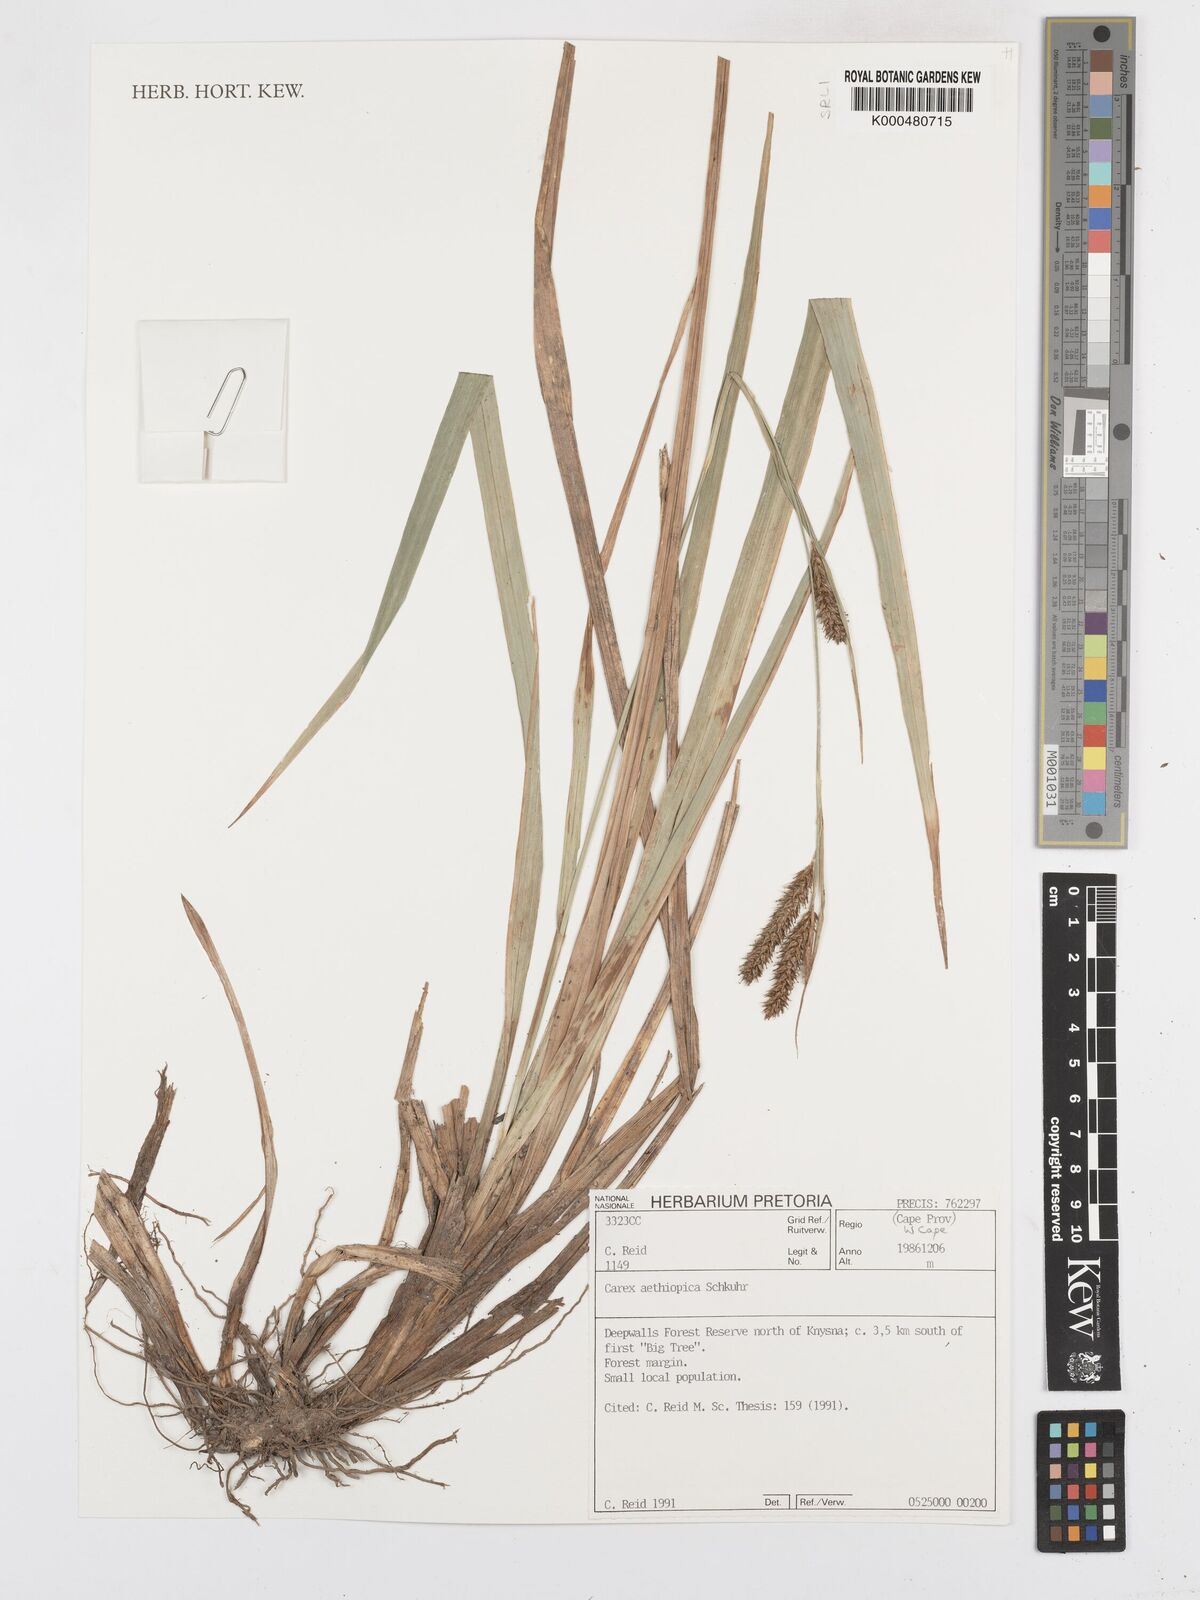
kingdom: Plantae
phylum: Tracheophyta
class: Liliopsida
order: Poales
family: Cyperaceae
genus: Carex
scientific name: Carex aethiopica
